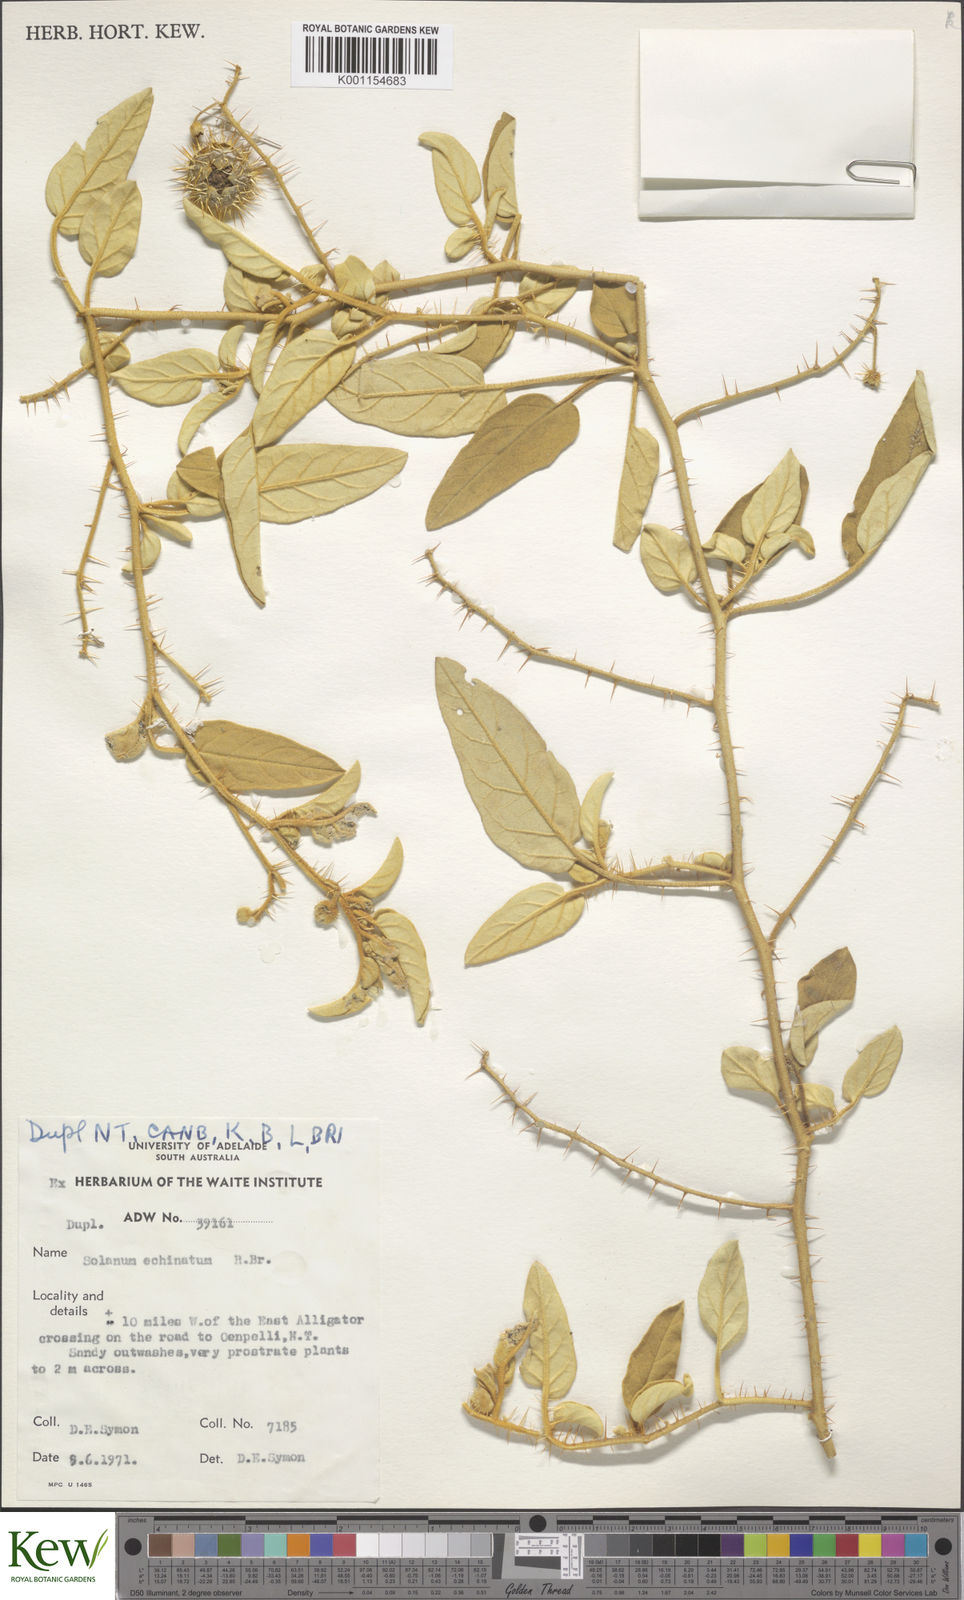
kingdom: Plantae
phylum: Tracheophyta
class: Magnoliopsida
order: Solanales
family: Solanaceae
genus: Solanum
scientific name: Solanum echinatum
